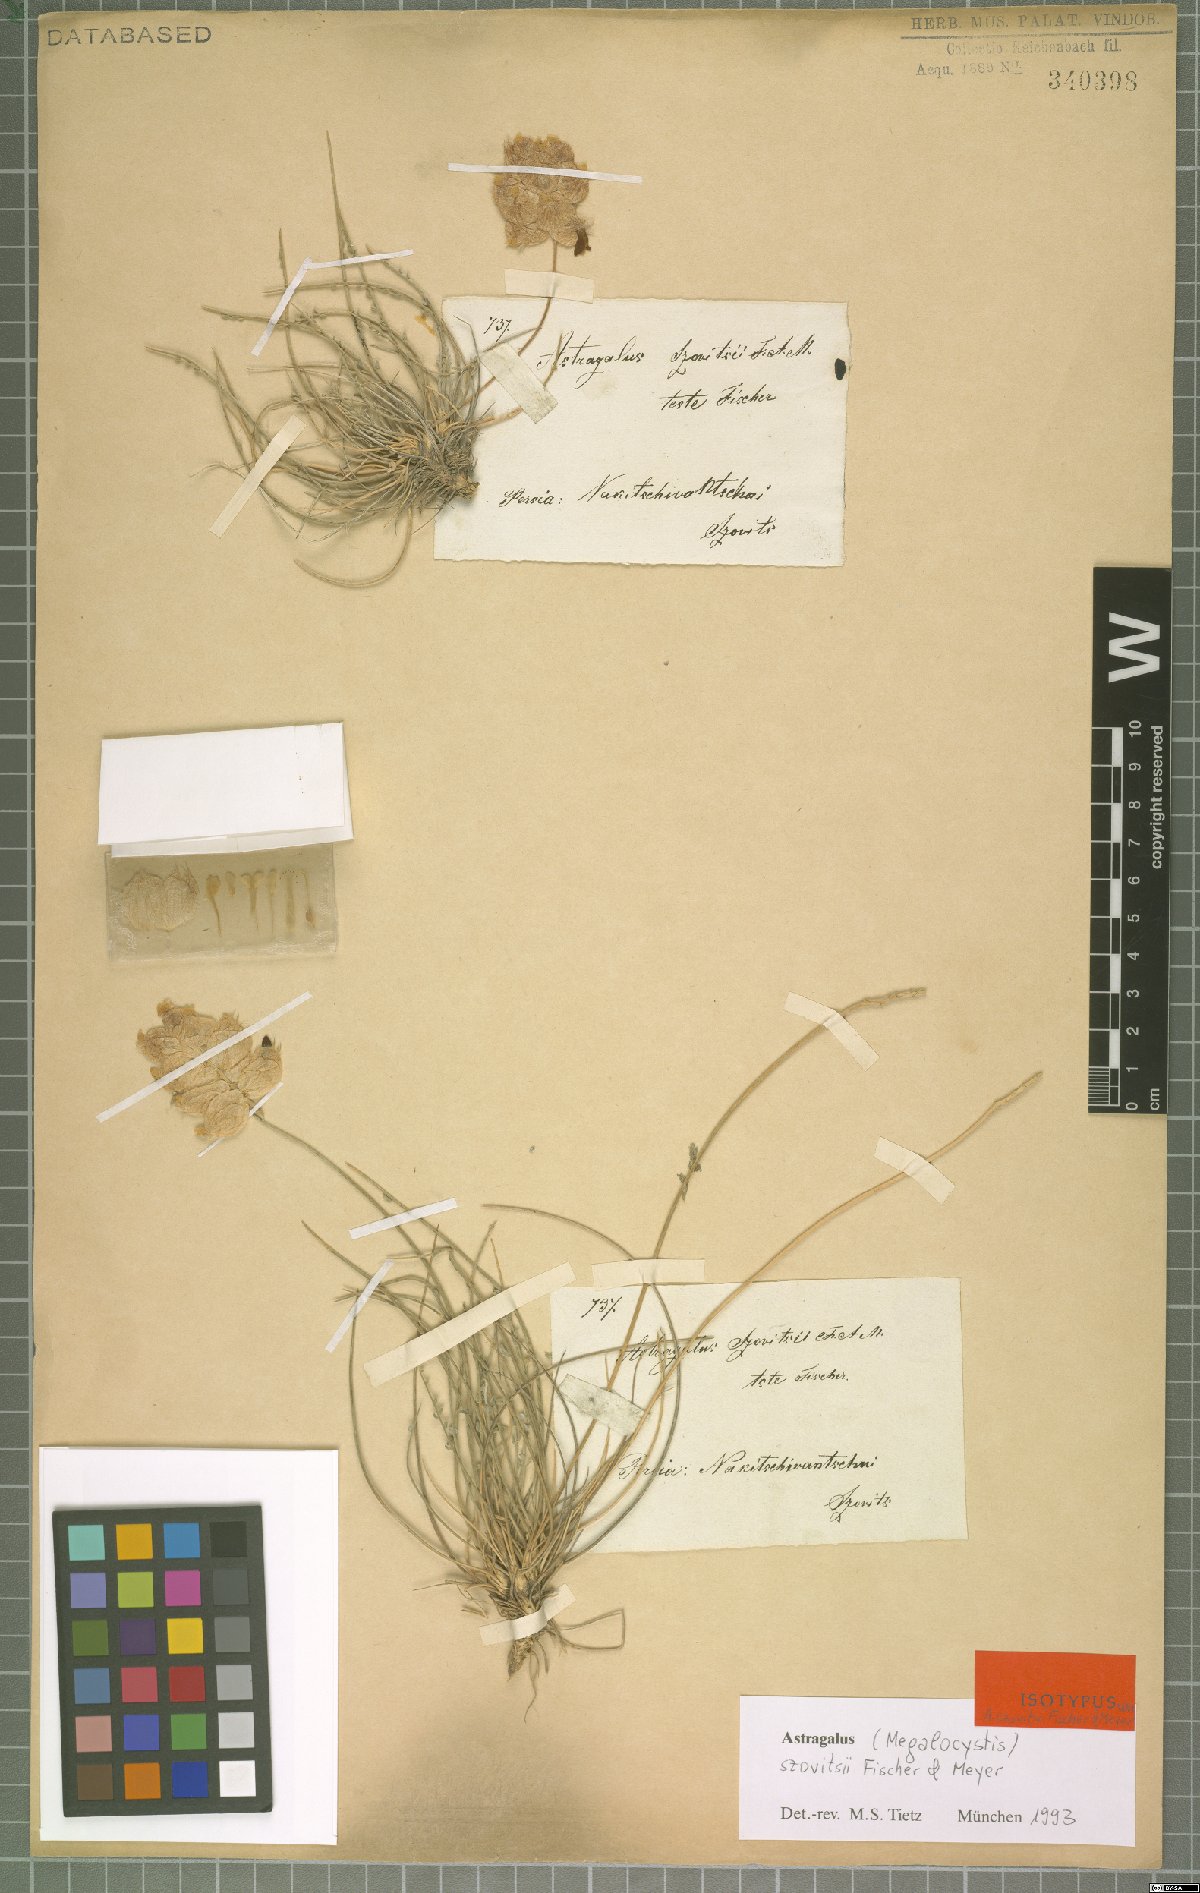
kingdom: Plantae
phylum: Tracheophyta
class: Magnoliopsida
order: Fabales
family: Fabaceae
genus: Astragalus
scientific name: Astragalus szovitsii
